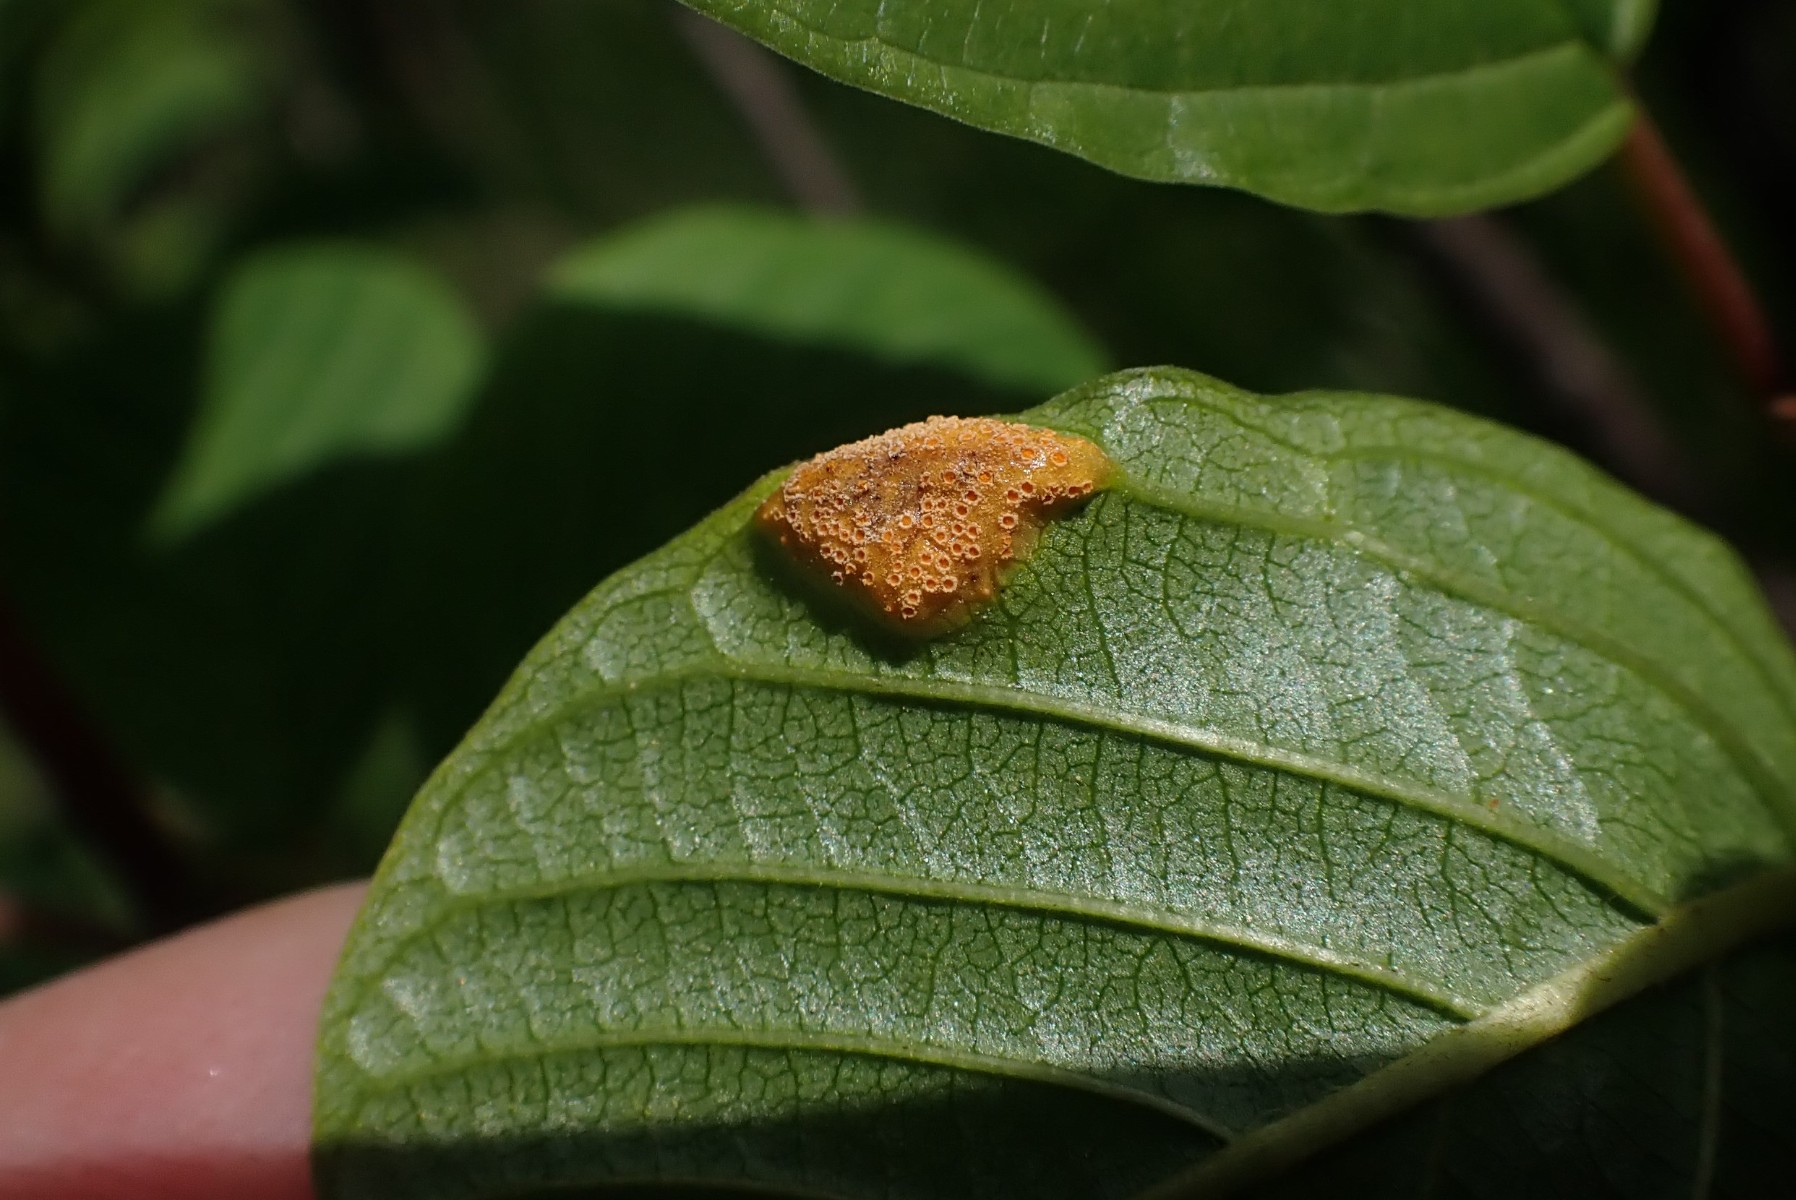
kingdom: Fungi
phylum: Basidiomycota
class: Pucciniomycetes
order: Pucciniales
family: Pucciniaceae
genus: Puccinia
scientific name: Puccinia coronata
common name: Crown rust
